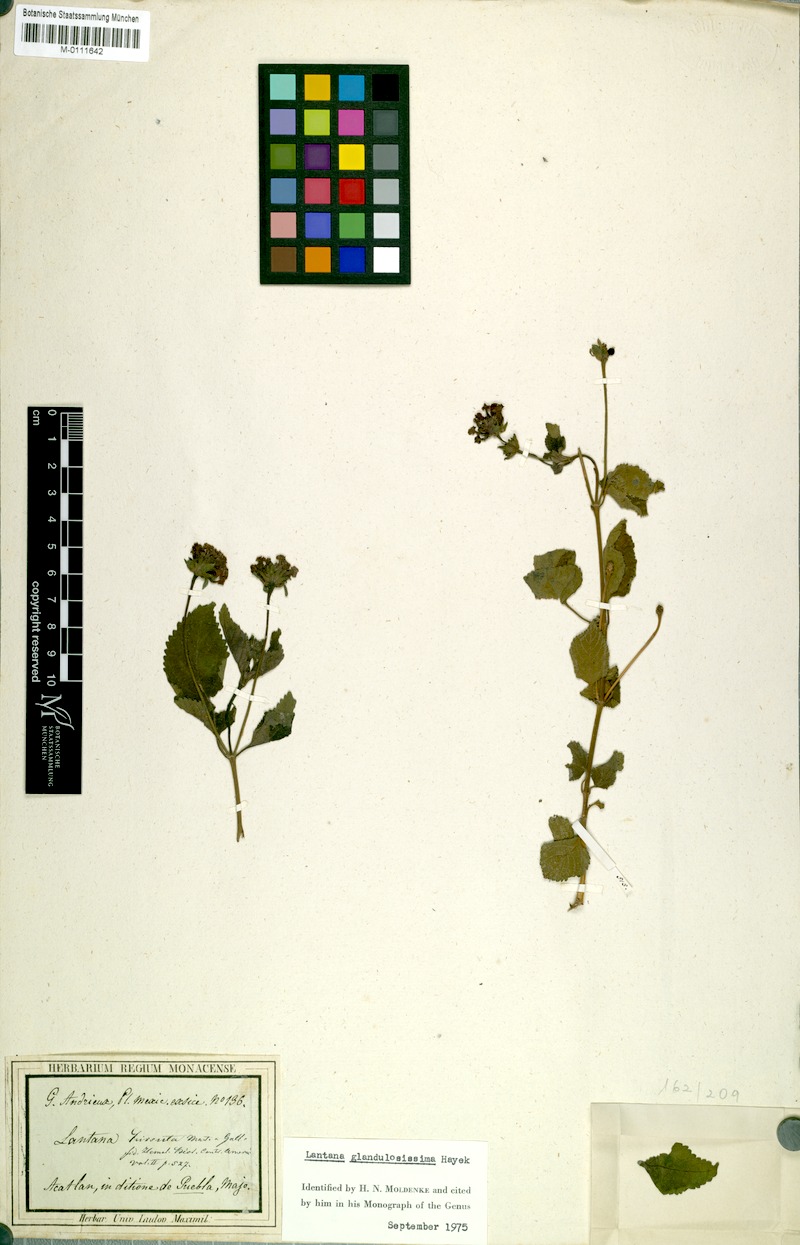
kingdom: Plantae
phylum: Tracheophyta
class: Magnoliopsida
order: Lamiales
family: Verbenaceae
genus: Lantana
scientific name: Lantana hirsuta
